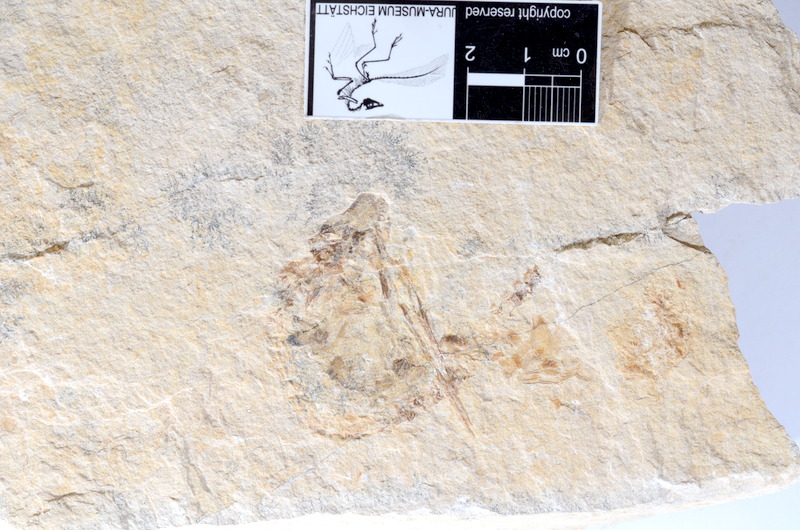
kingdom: Animalia
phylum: Chordata
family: Aspidorhynchidae
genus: Belonostomus
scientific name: Belonostomus
